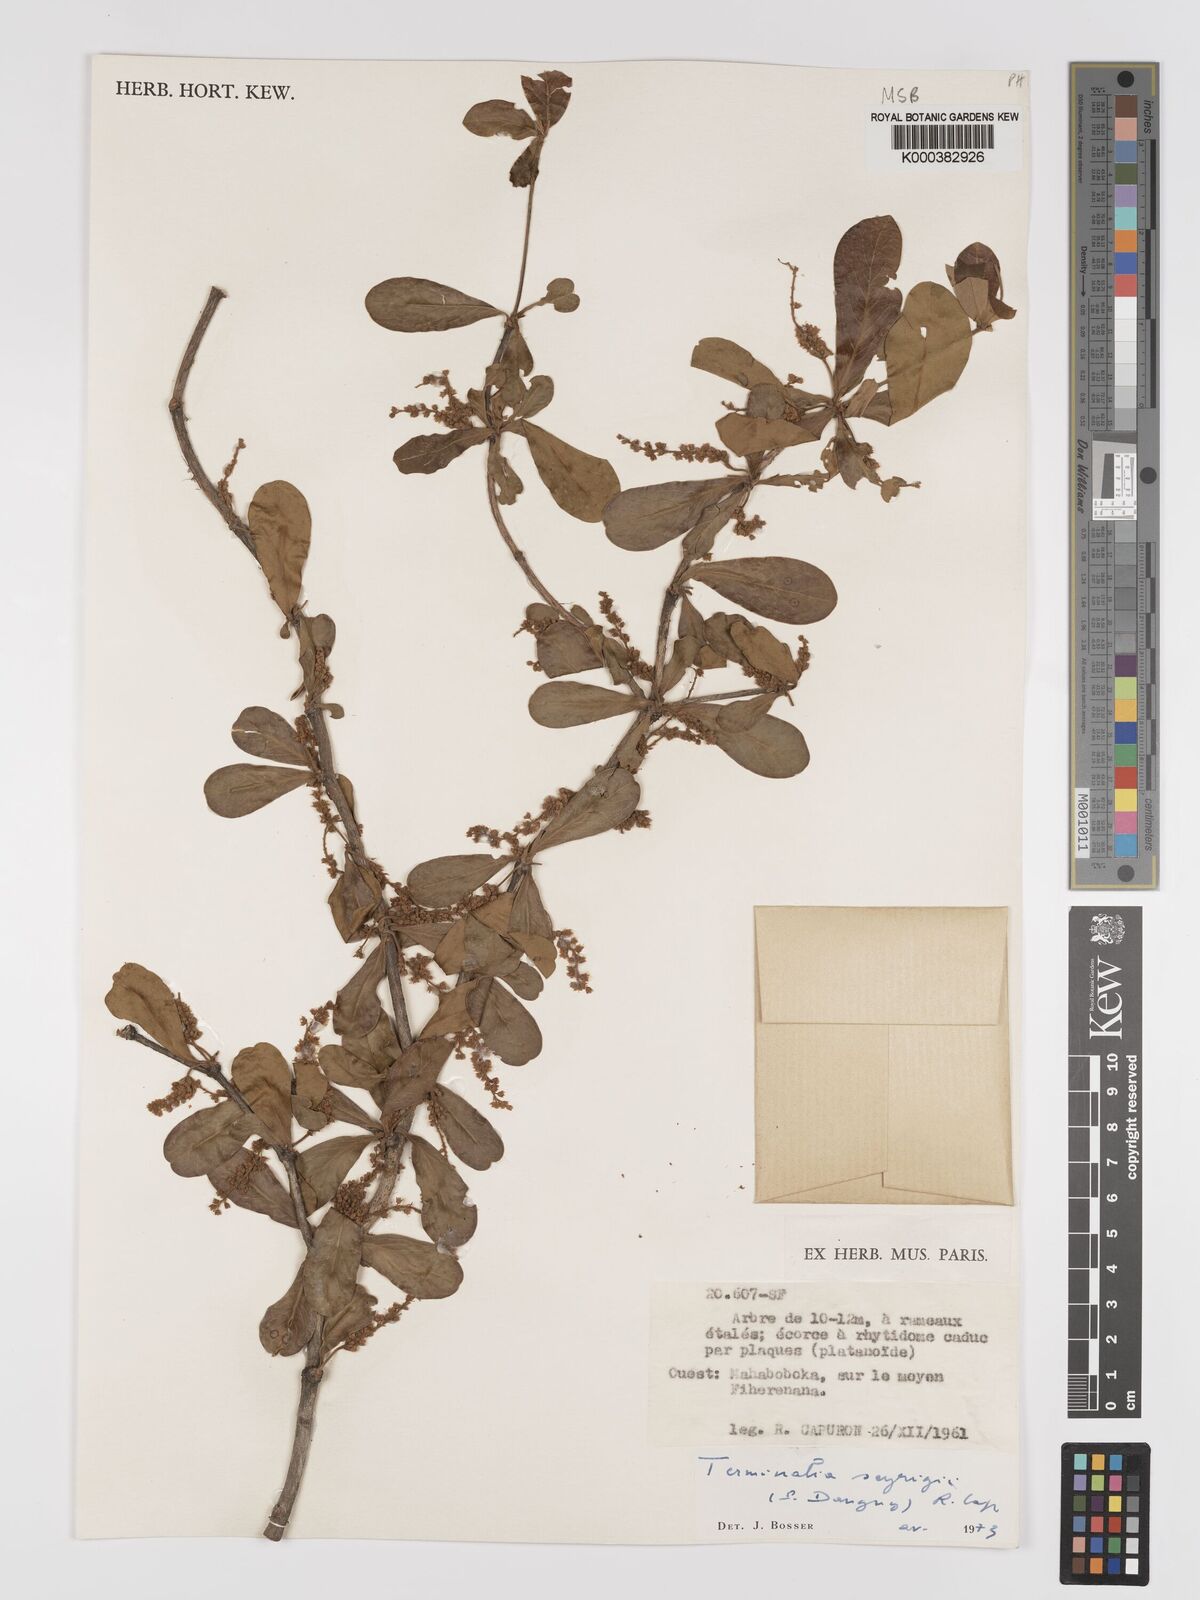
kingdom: Plantae
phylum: Tracheophyta
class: Magnoliopsida
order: Myrtales
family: Combretaceae
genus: Terminalia
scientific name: Terminalia seyrigii
